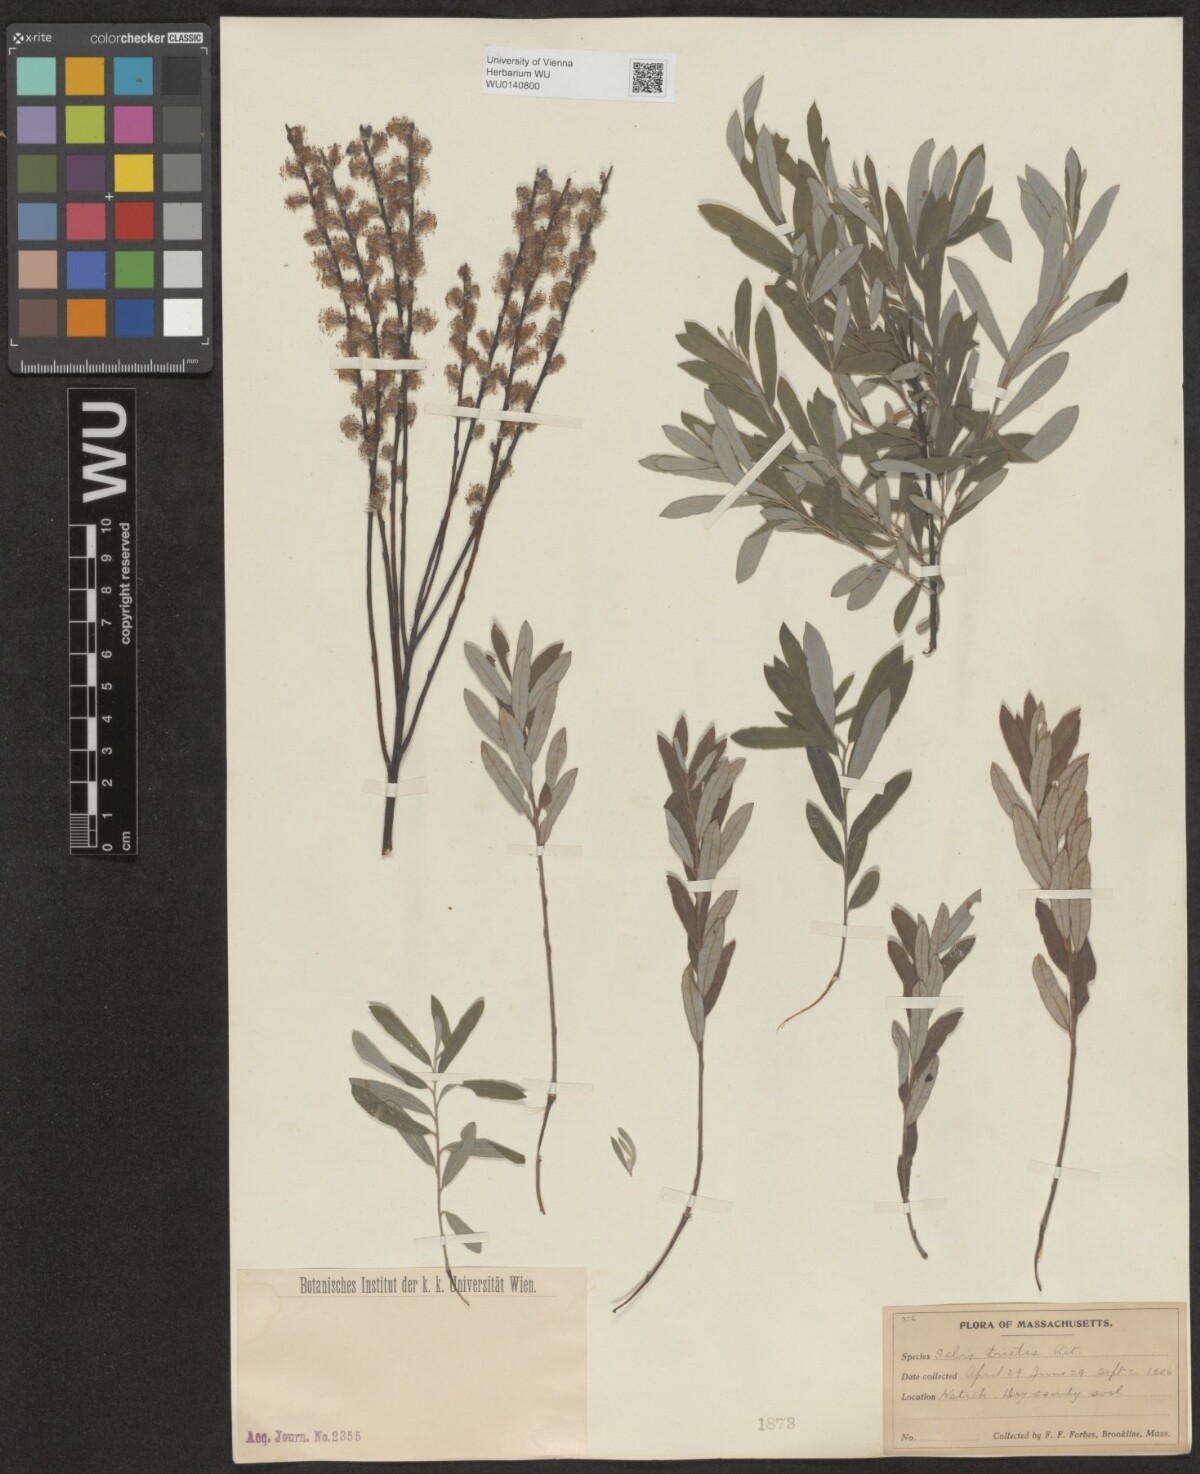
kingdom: Plantae
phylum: Tracheophyta
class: Magnoliopsida
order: Malpighiales
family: Salicaceae
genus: Salix
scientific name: Salix humilis
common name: Prairie willow
